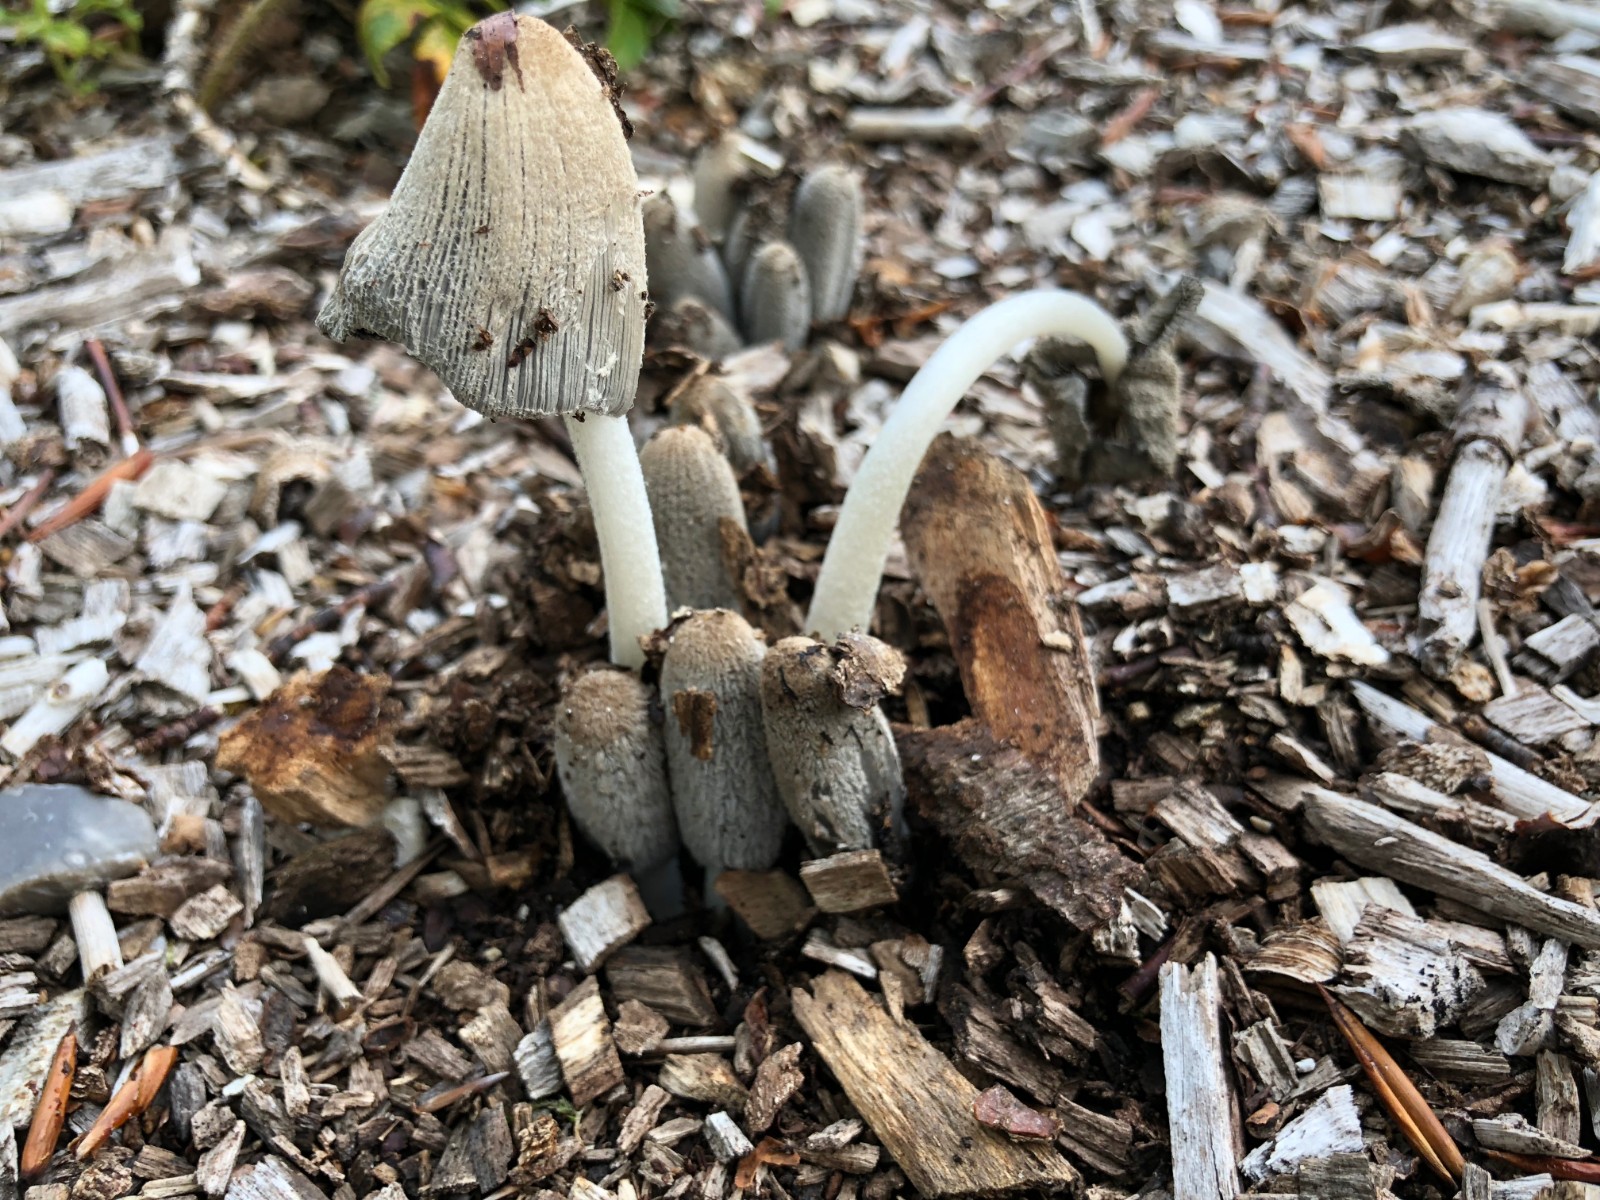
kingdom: Fungi
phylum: Basidiomycota
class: Agaricomycetes
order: Agaricales
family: Psathyrellaceae
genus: Coprinopsis
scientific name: Coprinopsis lagopus
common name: dunstokket blækhat
